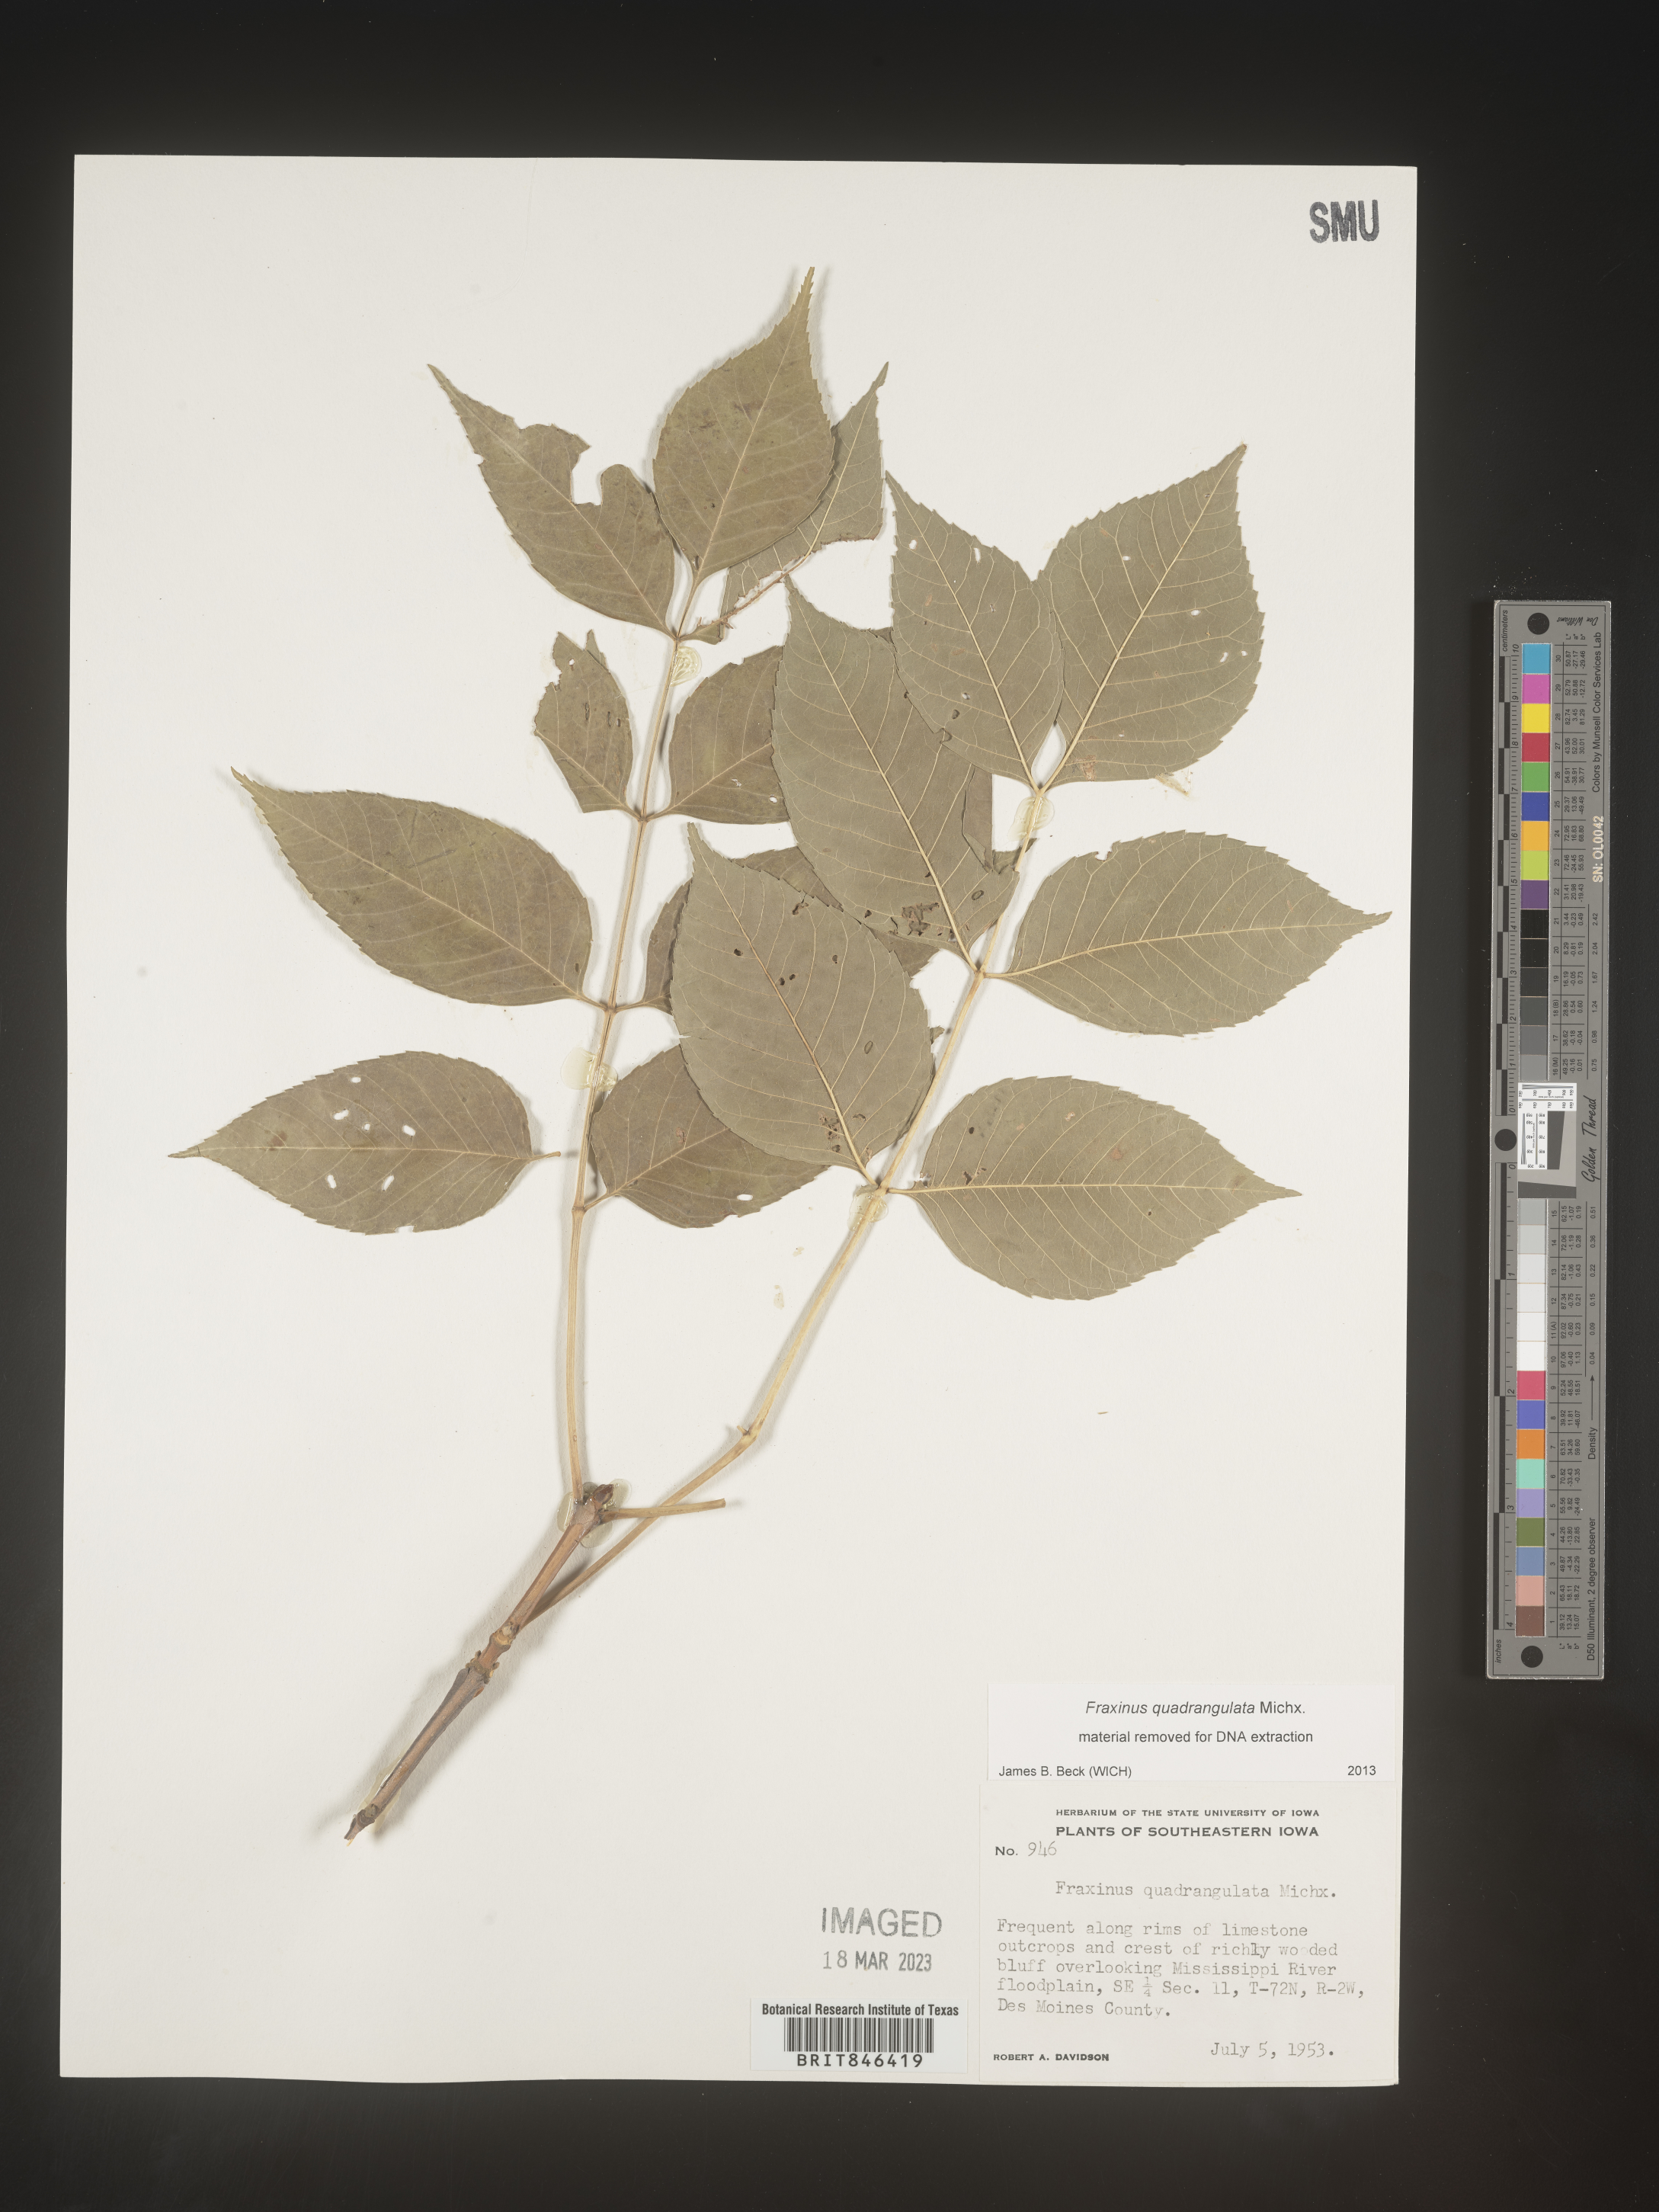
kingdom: Plantae
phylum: Tracheophyta
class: Magnoliopsida
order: Lamiales
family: Oleaceae
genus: Fraxinus
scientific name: Fraxinus quadrangulata
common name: Blue ash
